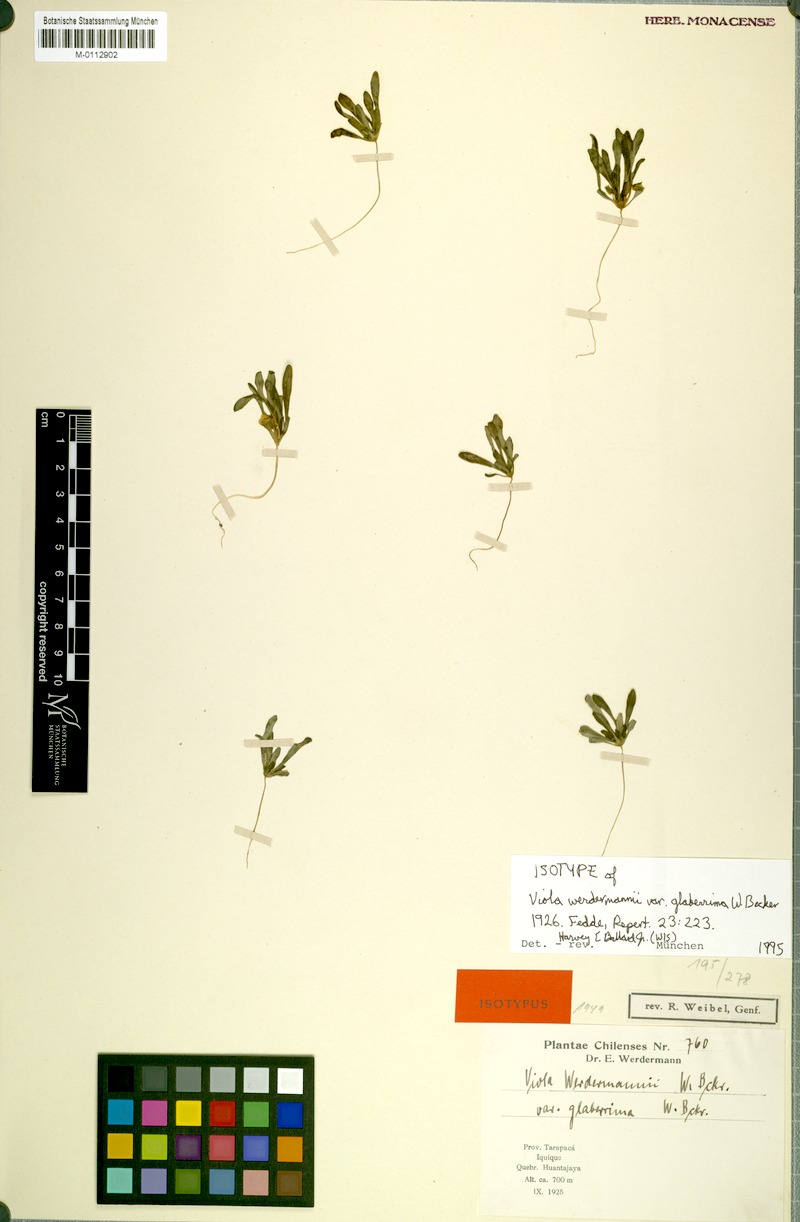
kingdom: Plantae
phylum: Tracheophyta
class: Magnoliopsida
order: Malpighiales
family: Violaceae
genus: Viola
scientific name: Viola polypoda
